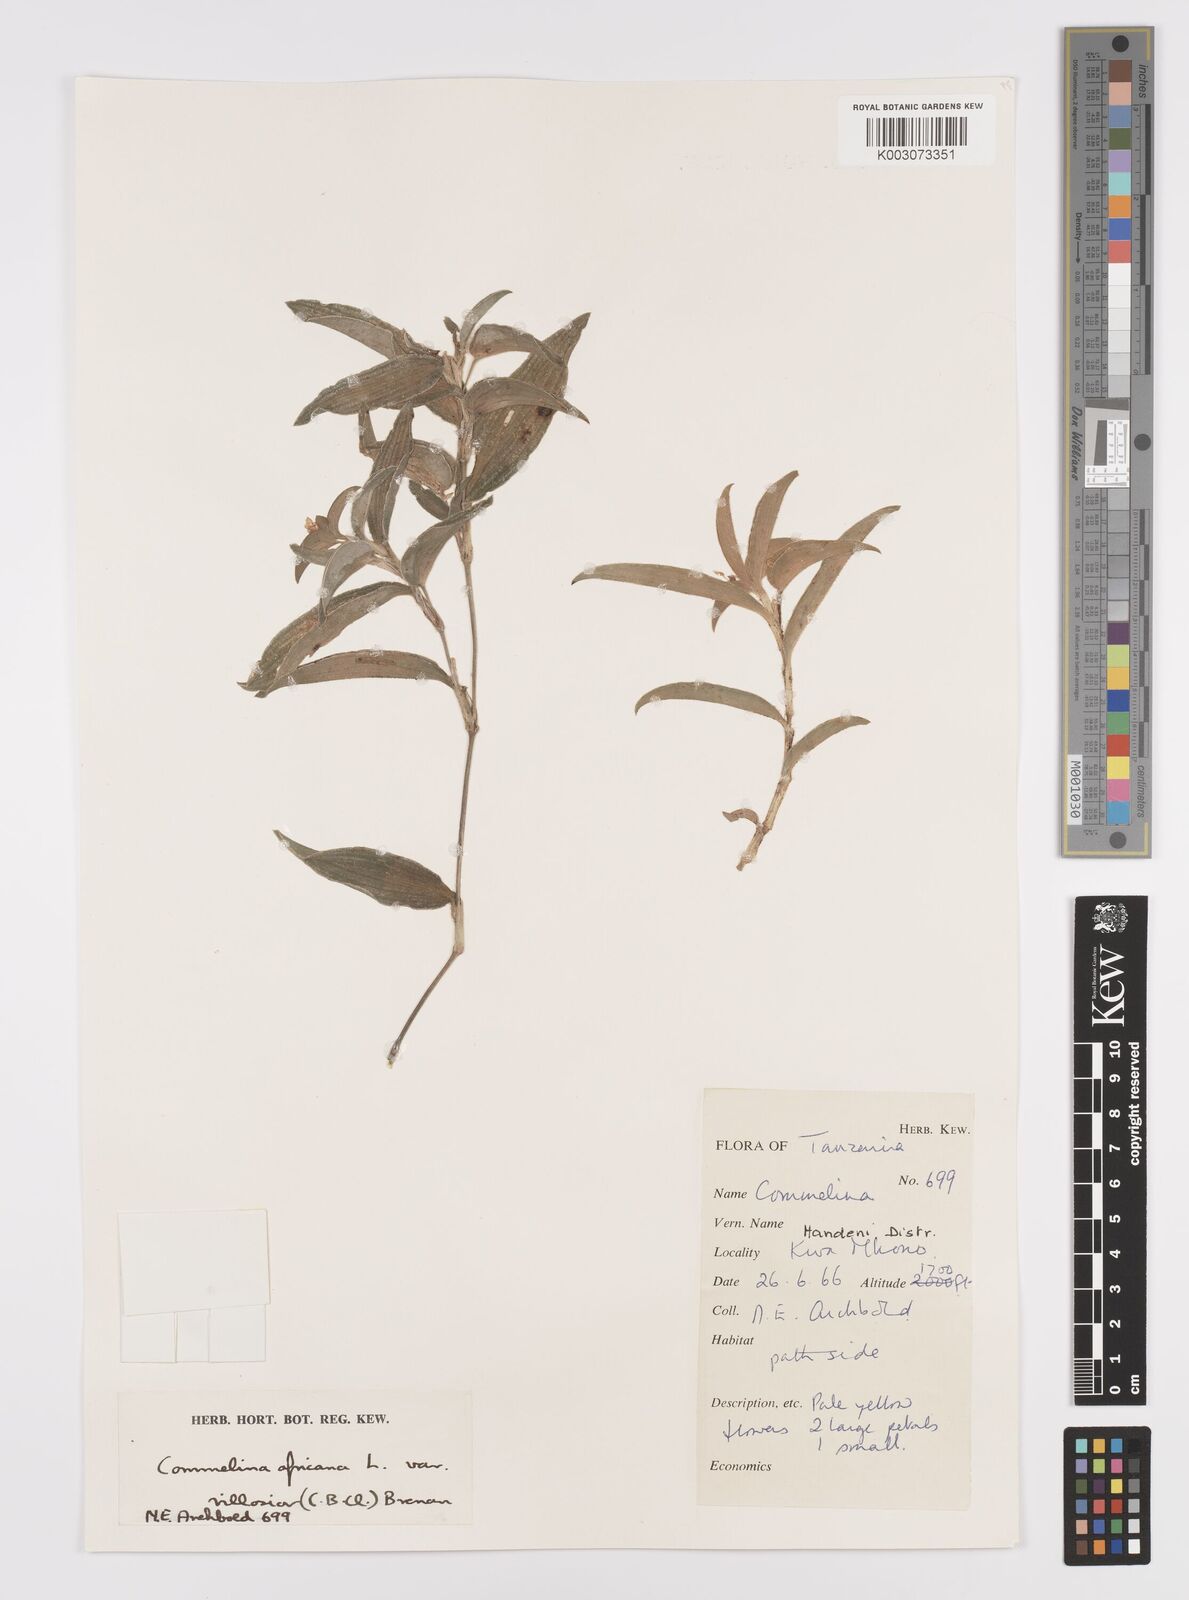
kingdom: Plantae
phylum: Tracheophyta
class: Liliopsida
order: Commelinales
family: Commelinaceae
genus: Commelina
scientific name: Commelina africana
